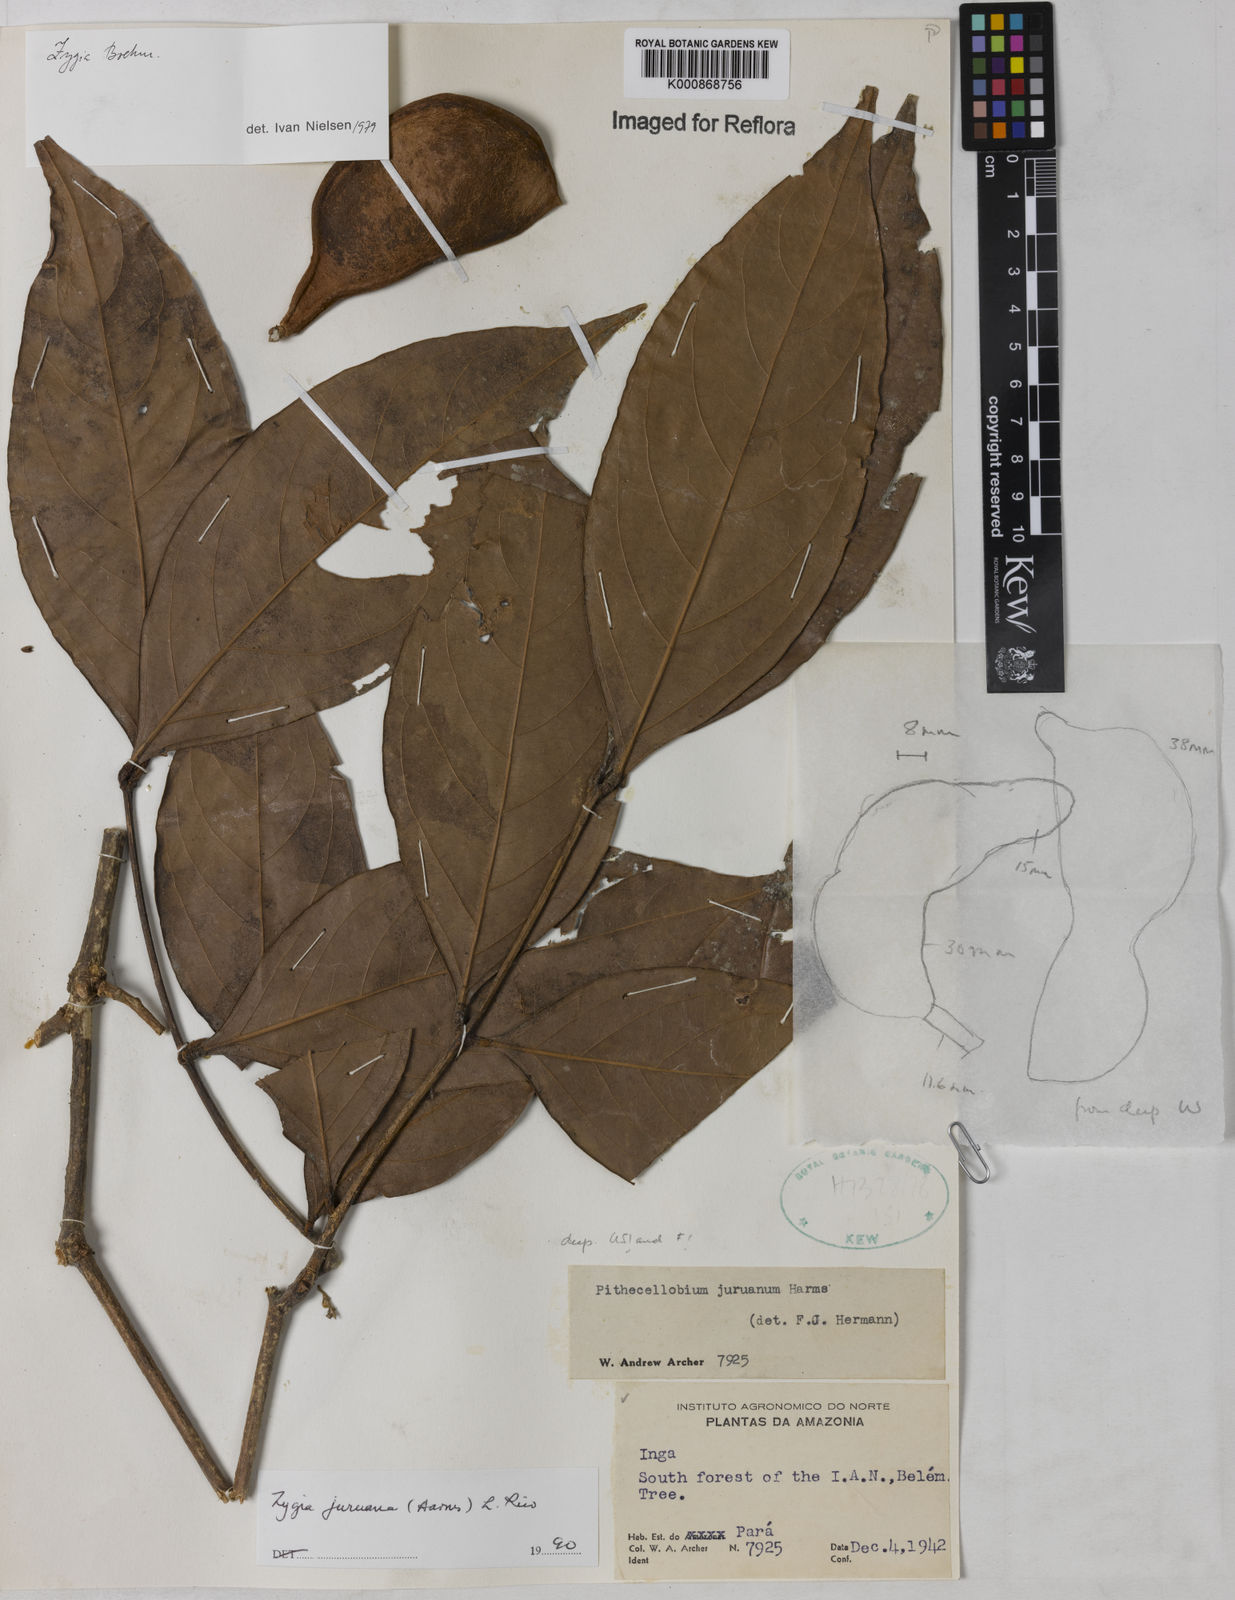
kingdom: Plantae
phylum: Tracheophyta
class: Magnoliopsida
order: Fabales
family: Fabaceae
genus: Zygia
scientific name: Zygia juruana
